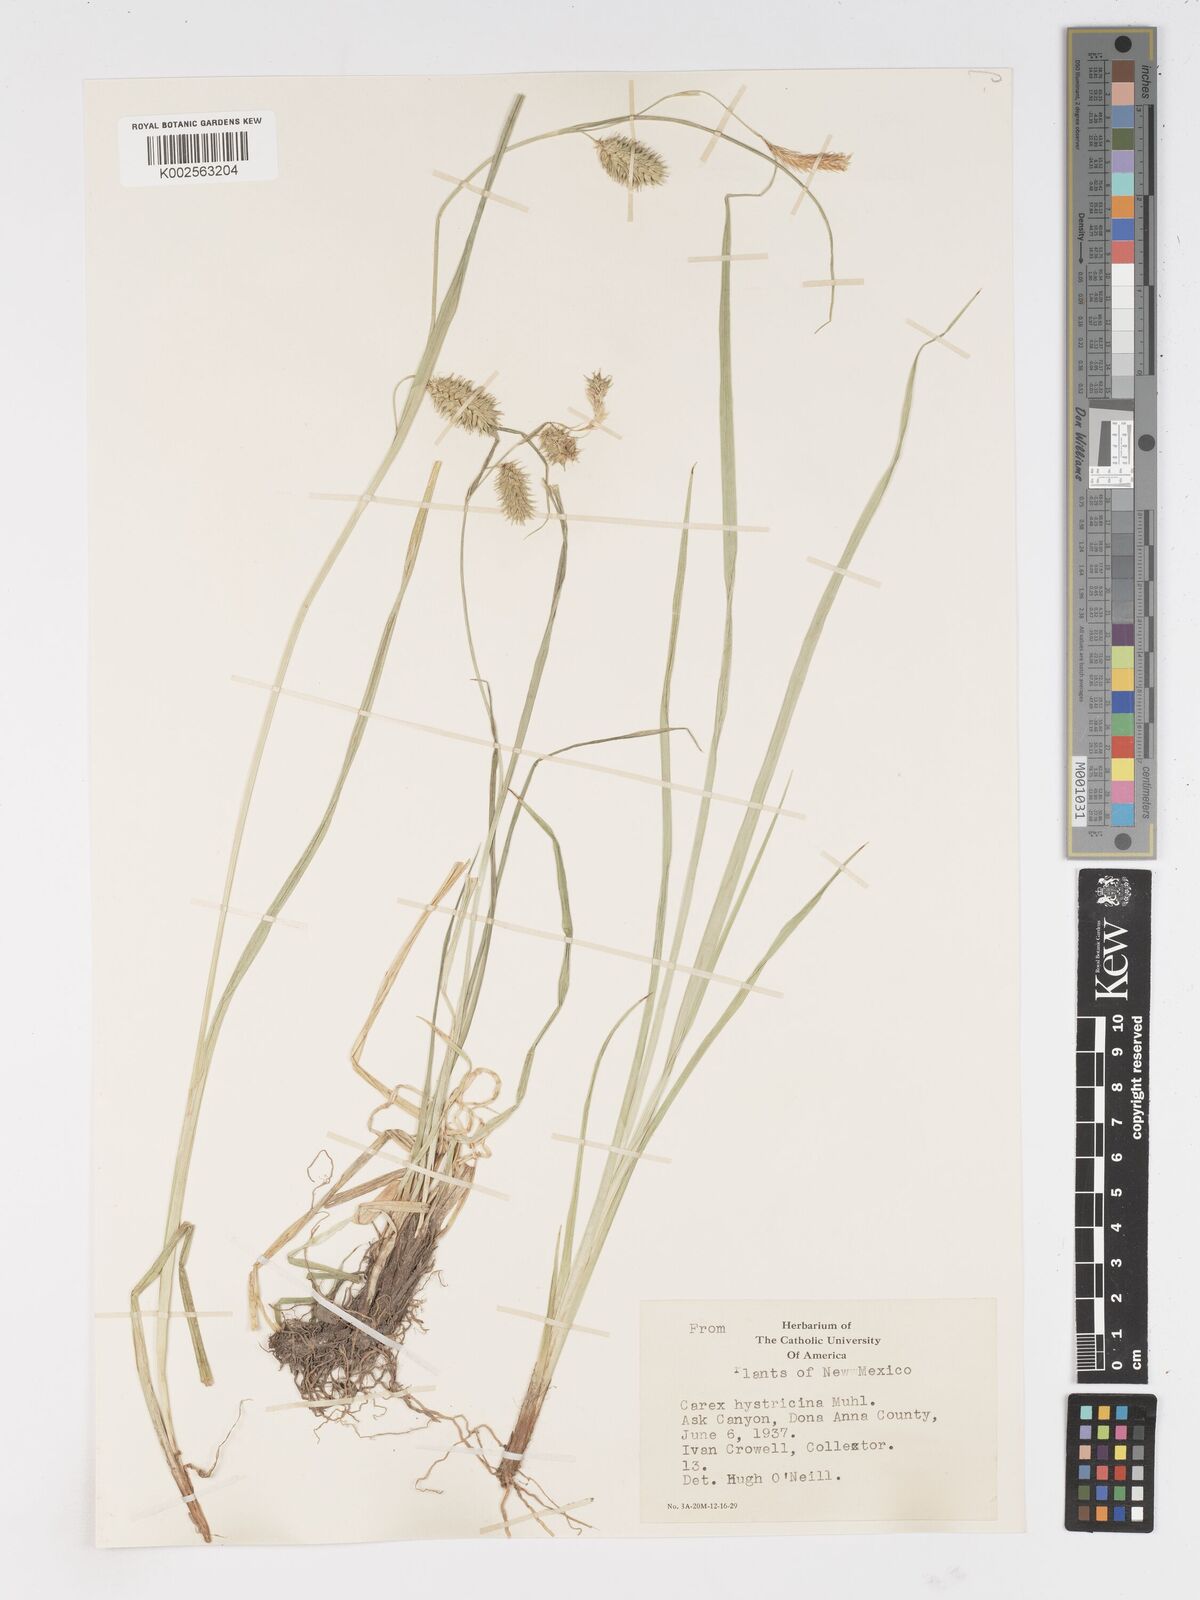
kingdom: Plantae
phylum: Tracheophyta
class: Liliopsida
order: Poales
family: Cyperaceae
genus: Carex
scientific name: Carex hystericina
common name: Bottlebrush sedge
